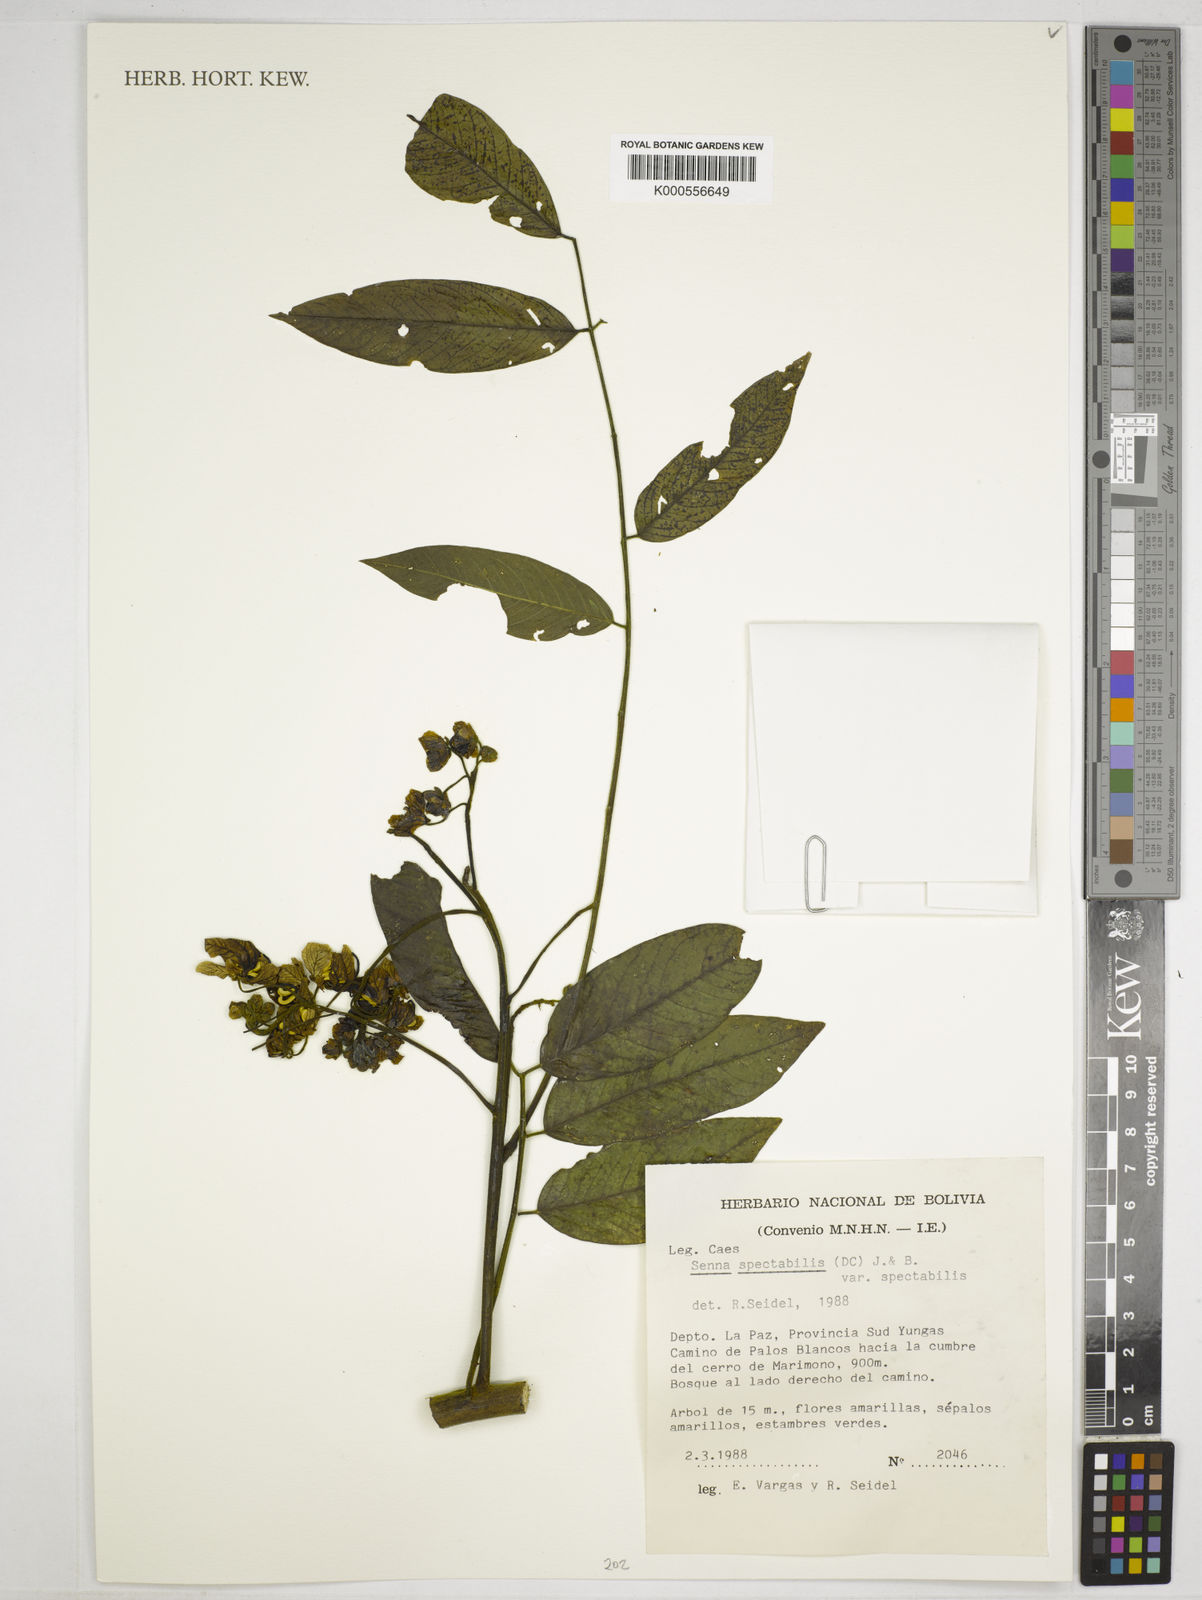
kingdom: Plantae
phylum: Tracheophyta
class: Magnoliopsida
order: Fabales
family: Fabaceae
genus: Senna
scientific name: Senna spectabilis
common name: Casia amarilla
